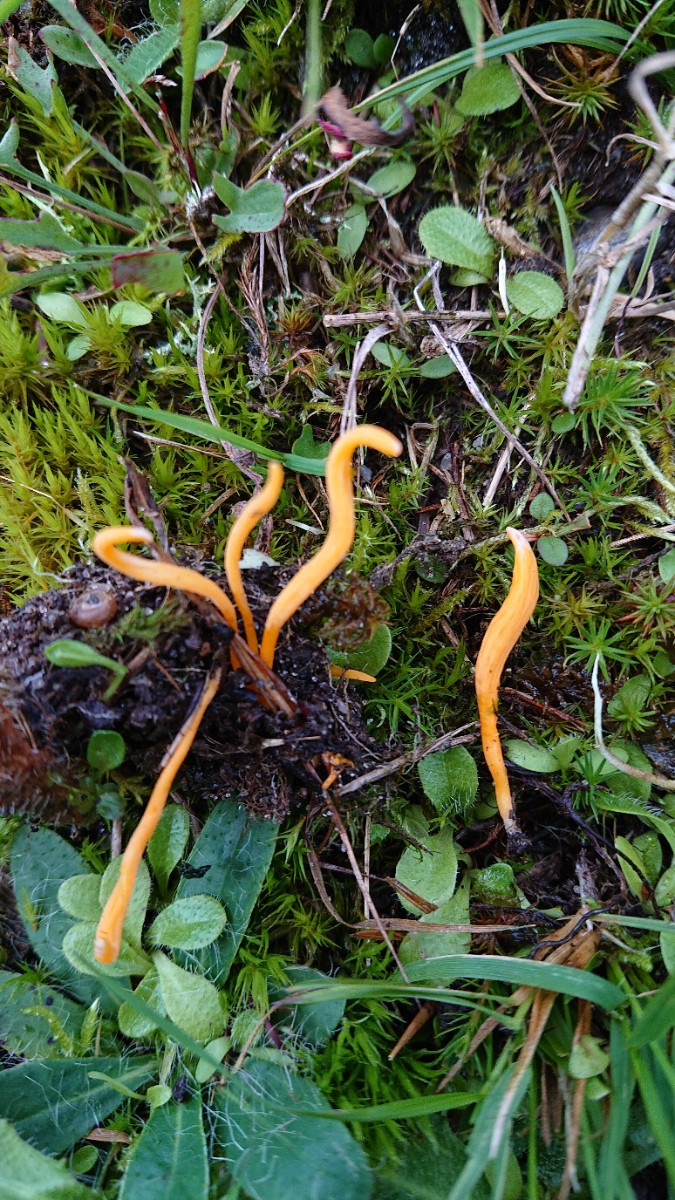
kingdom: Fungi
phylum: Basidiomycota
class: Agaricomycetes
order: Agaricales
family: Clavariaceae
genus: Clavulinopsis
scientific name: Clavulinopsis luteoalba
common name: abrikos-køllesvamp
